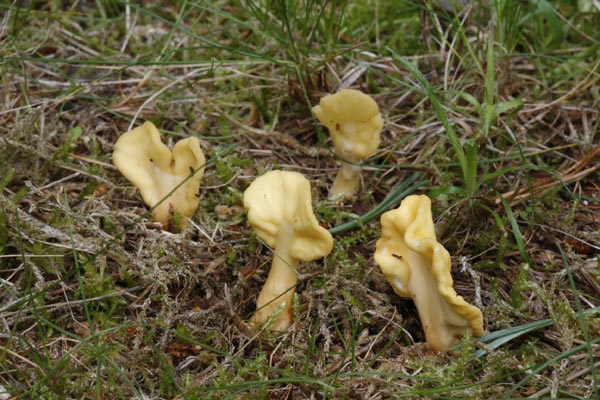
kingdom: Fungi
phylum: Ascomycota
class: Leotiomycetes
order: Rhytismatales
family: Cudoniaceae
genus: Spathularia
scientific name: Spathularia flavida
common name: gul spatelsvamp
